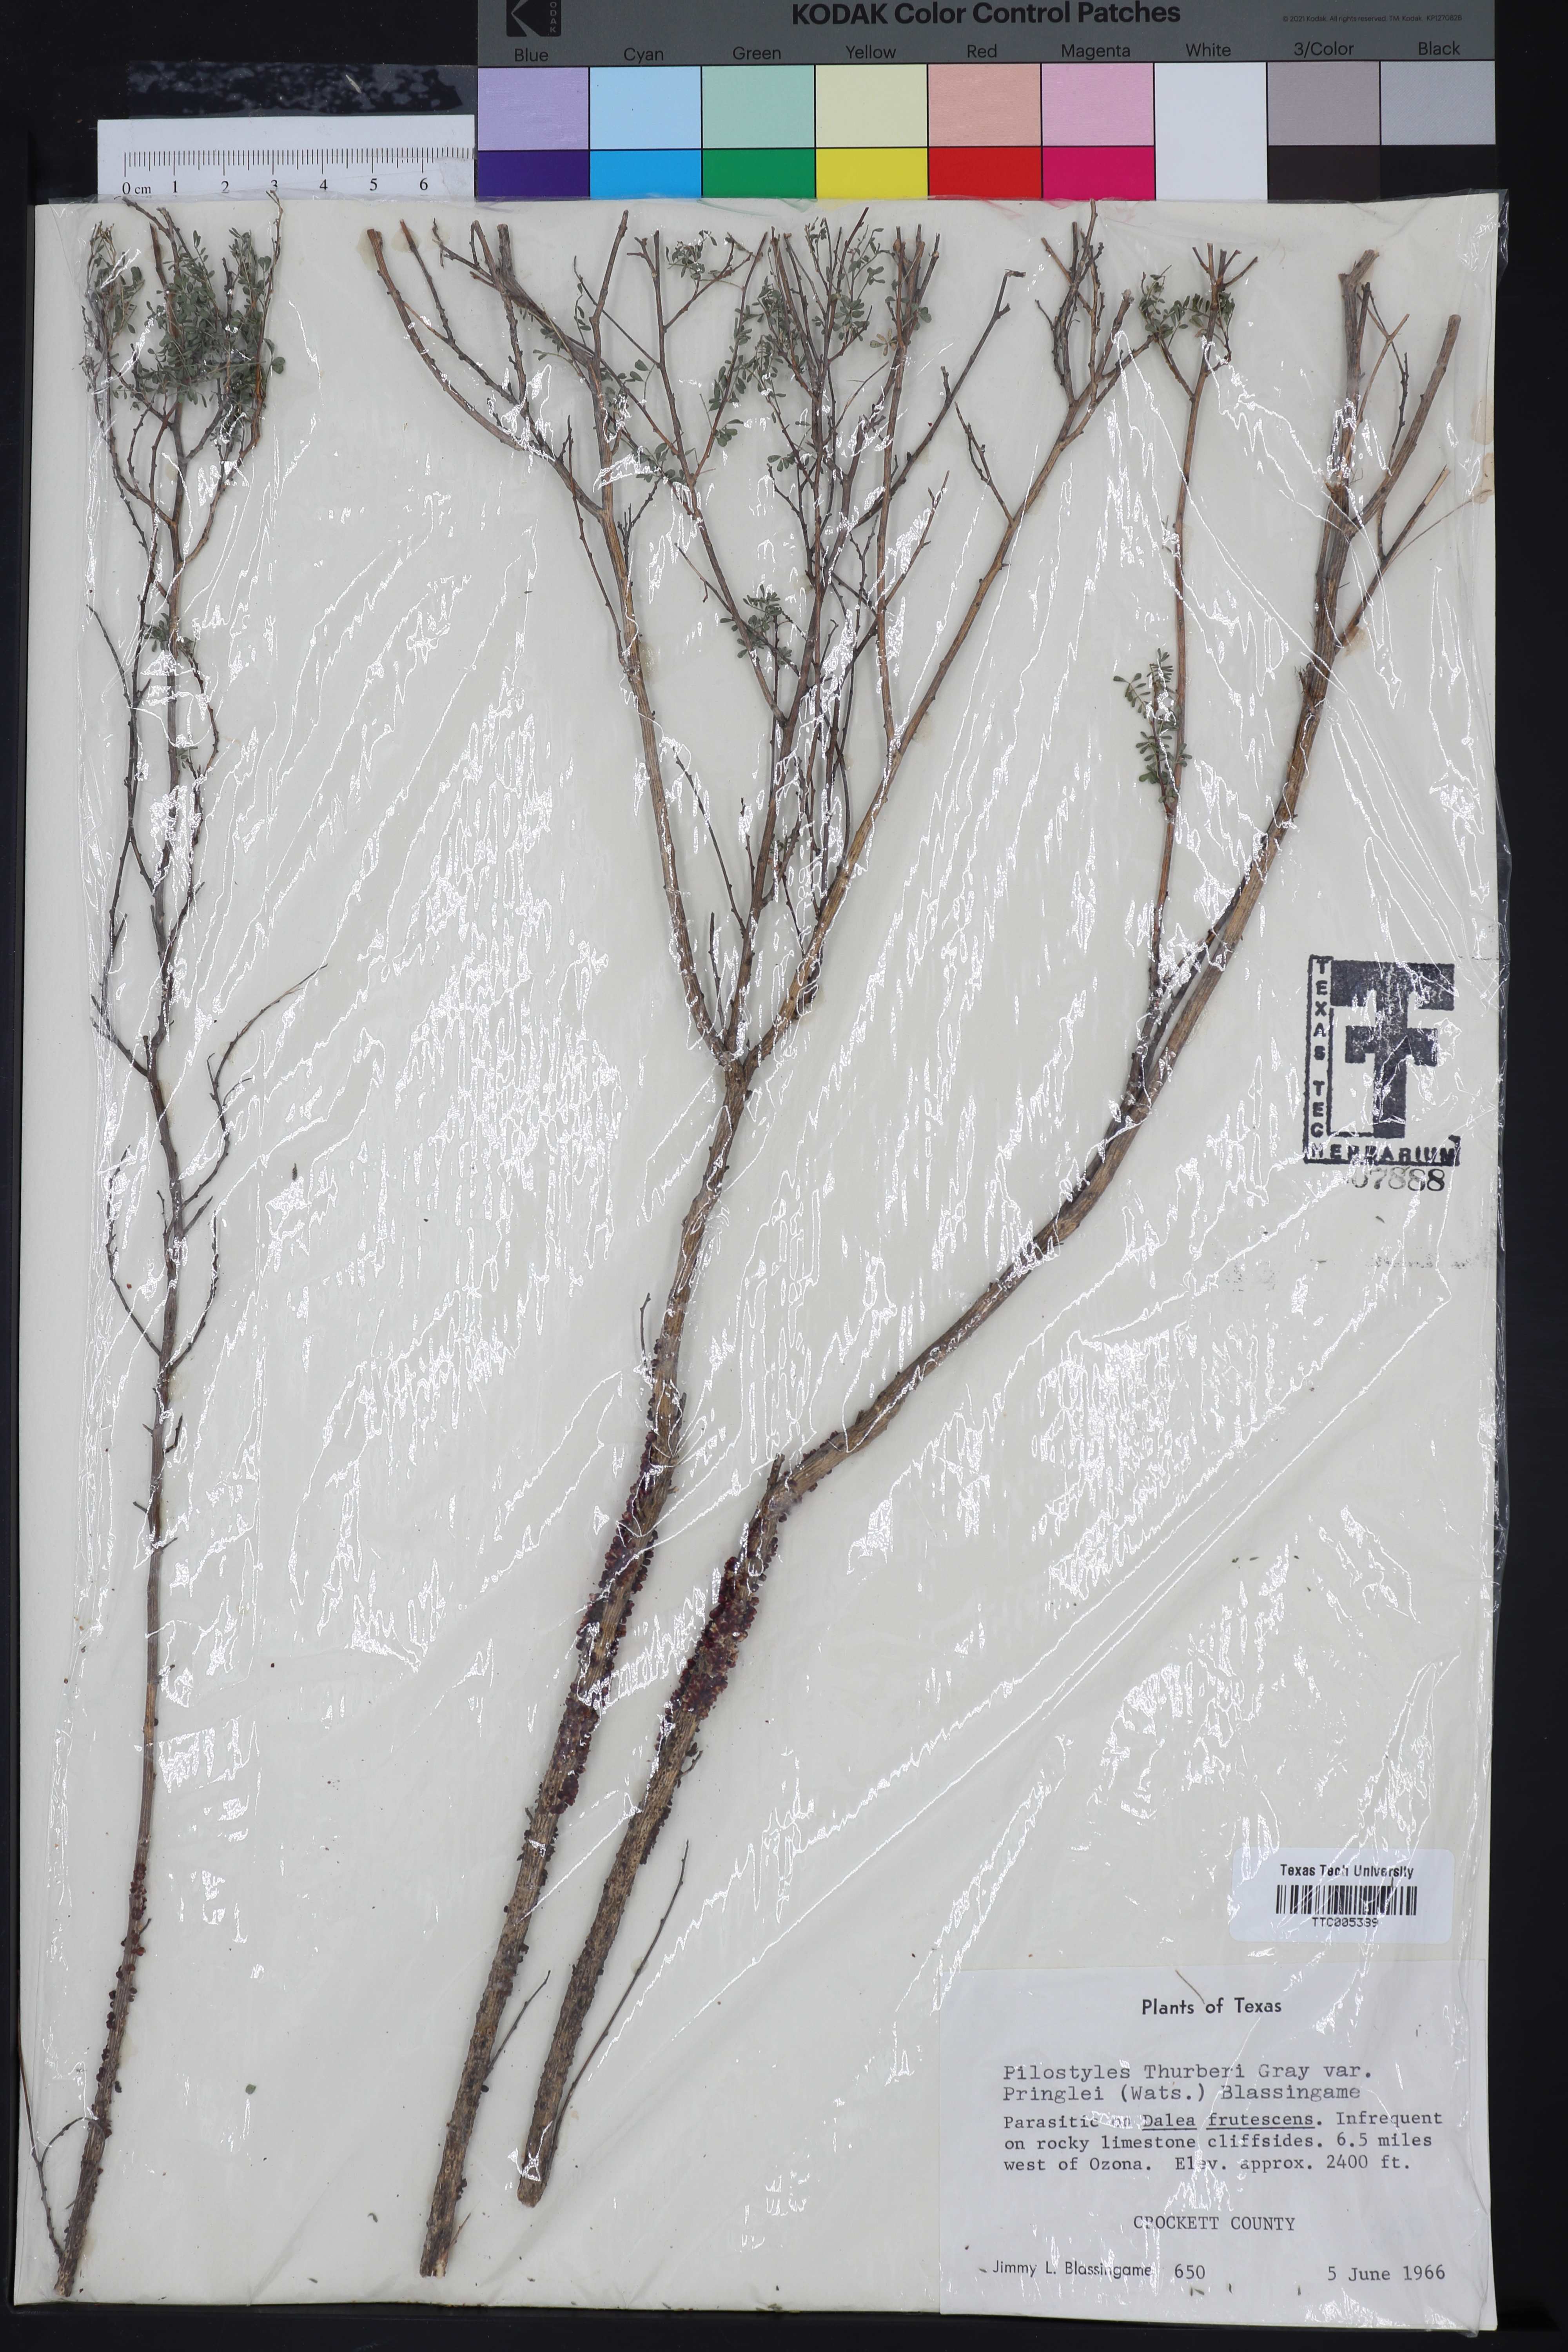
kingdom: Plantae
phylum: Tracheophyta
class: Magnoliopsida
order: Cucurbitales
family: Apodanthaceae
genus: Pilostyles
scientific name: Pilostyles thurberi
